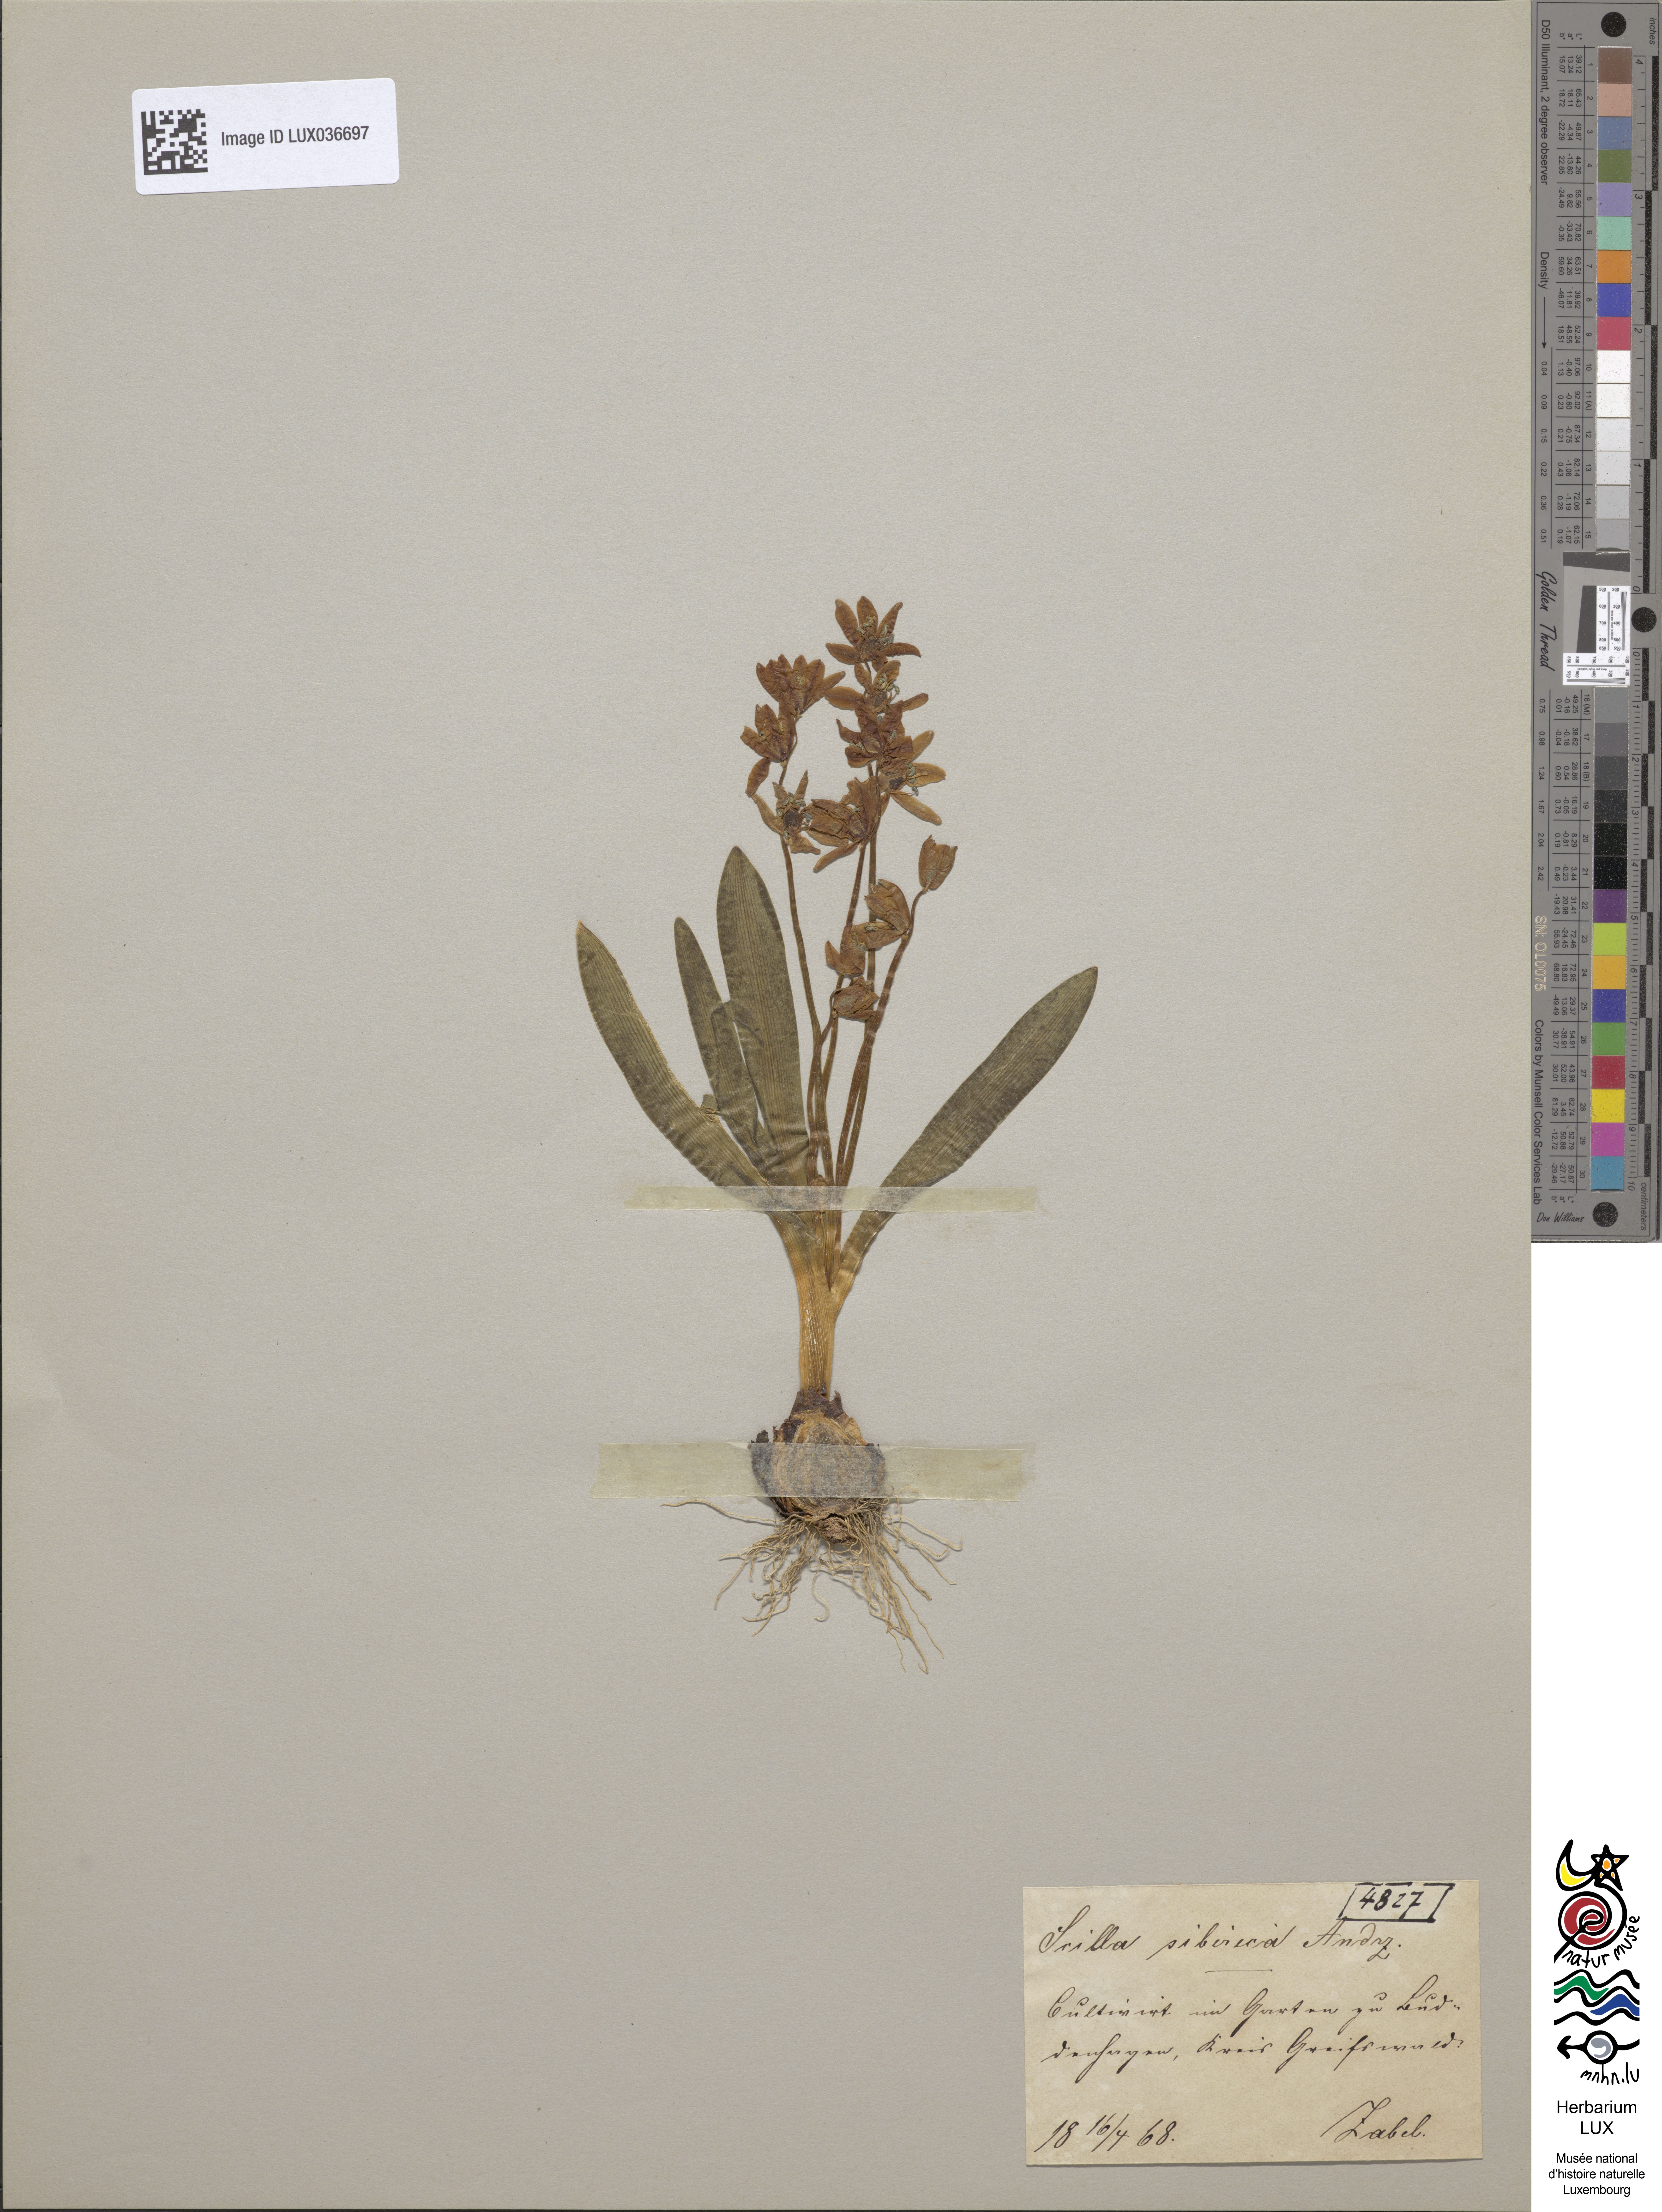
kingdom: Plantae
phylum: Tracheophyta
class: Liliopsida
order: Asparagales
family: Asparagaceae
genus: Scilla
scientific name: Scilla siberica
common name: Siberian squill
